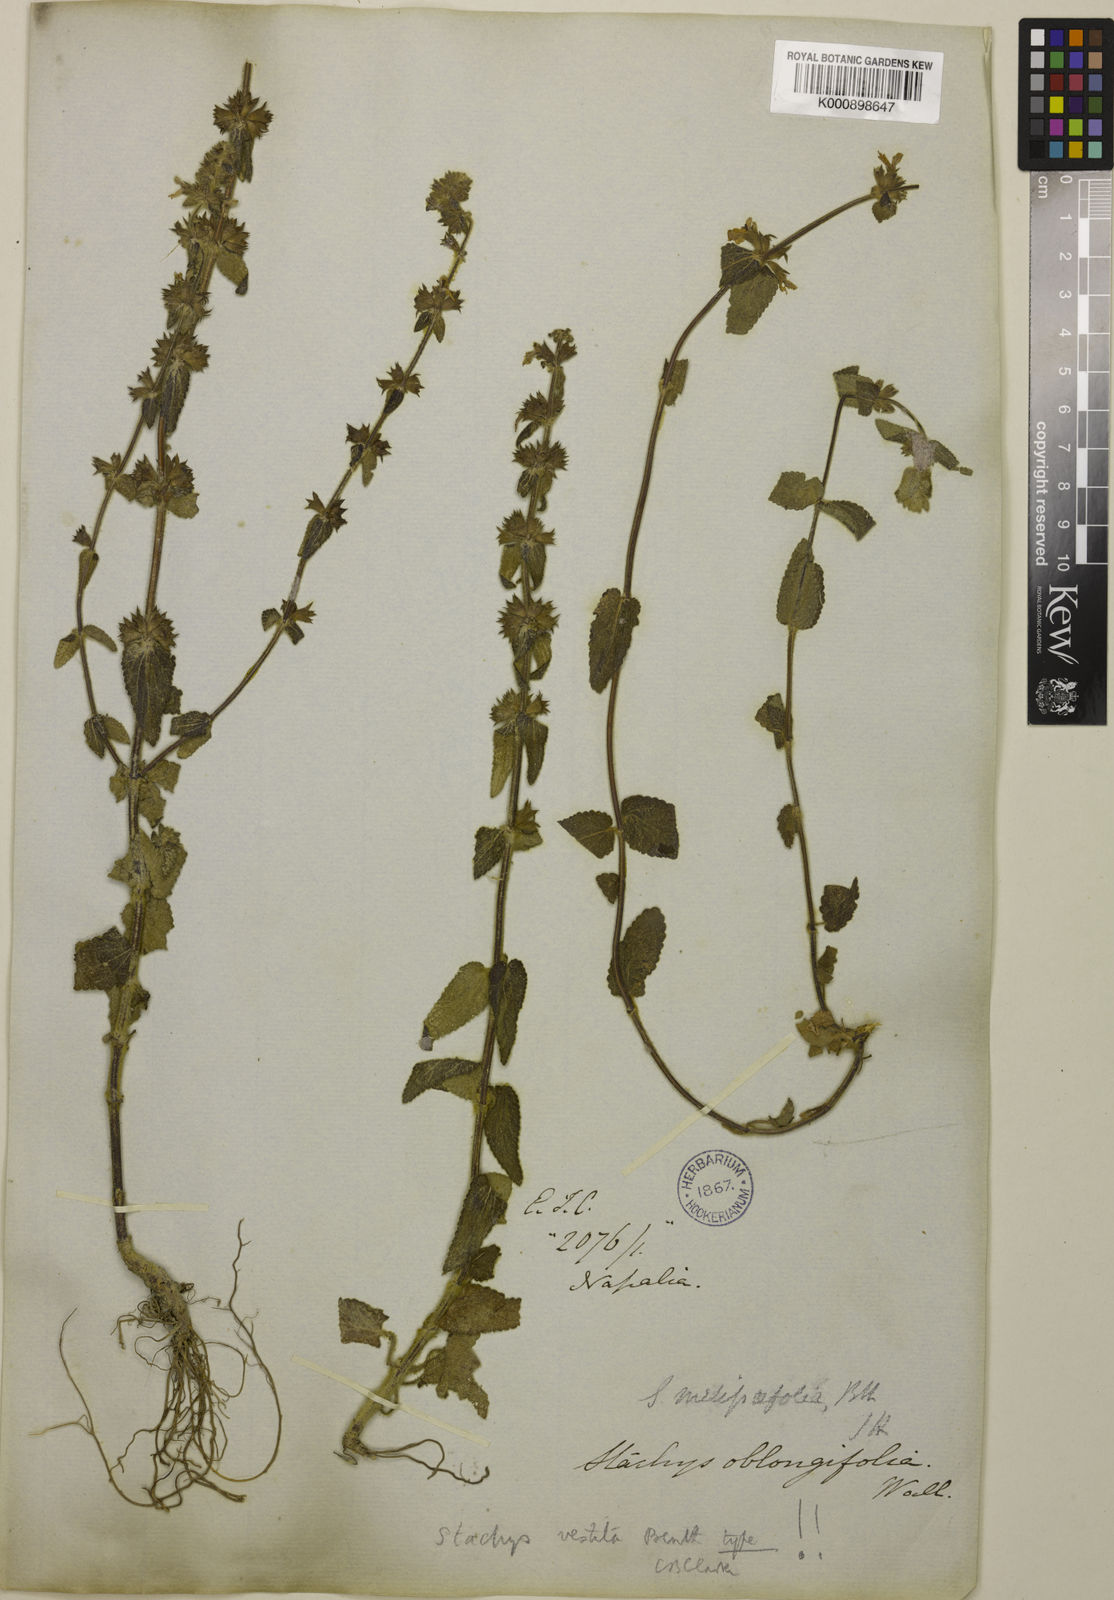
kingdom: Plantae
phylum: Tracheophyta
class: Magnoliopsida
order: Lamiales
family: Lamiaceae
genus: Stachys
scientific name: Stachys oblongifolia
